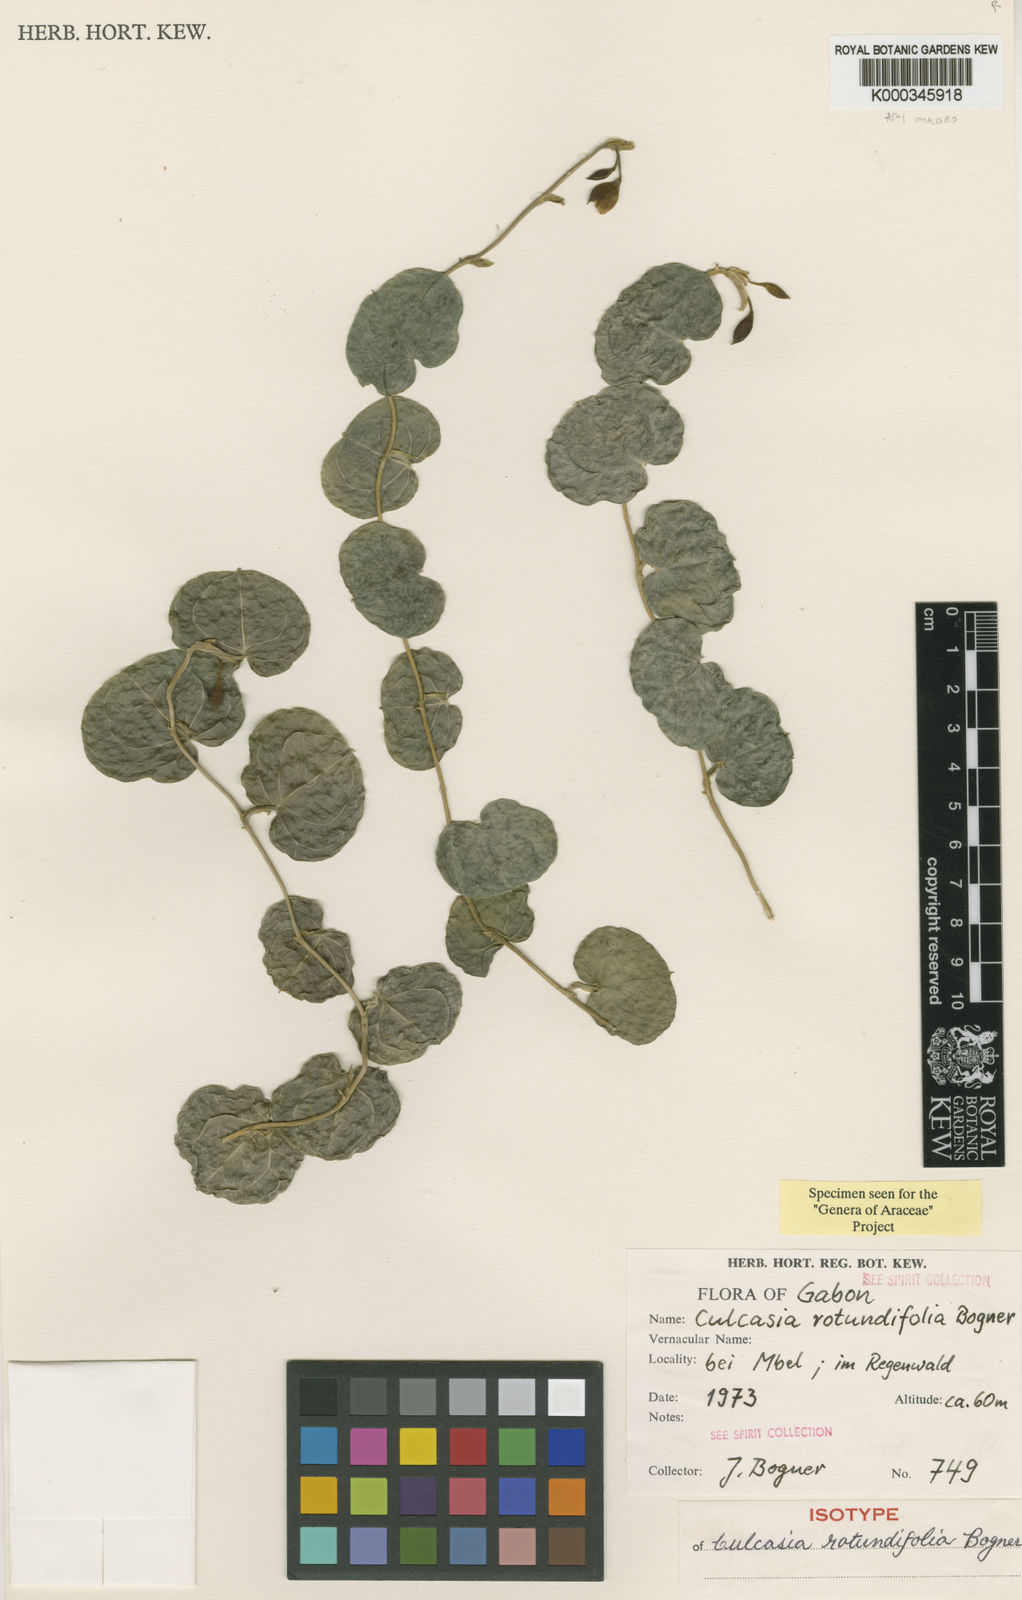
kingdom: Plantae
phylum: Tracheophyta
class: Liliopsida
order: Alismatales
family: Araceae
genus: Culcasia
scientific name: Culcasia rotundifolia
